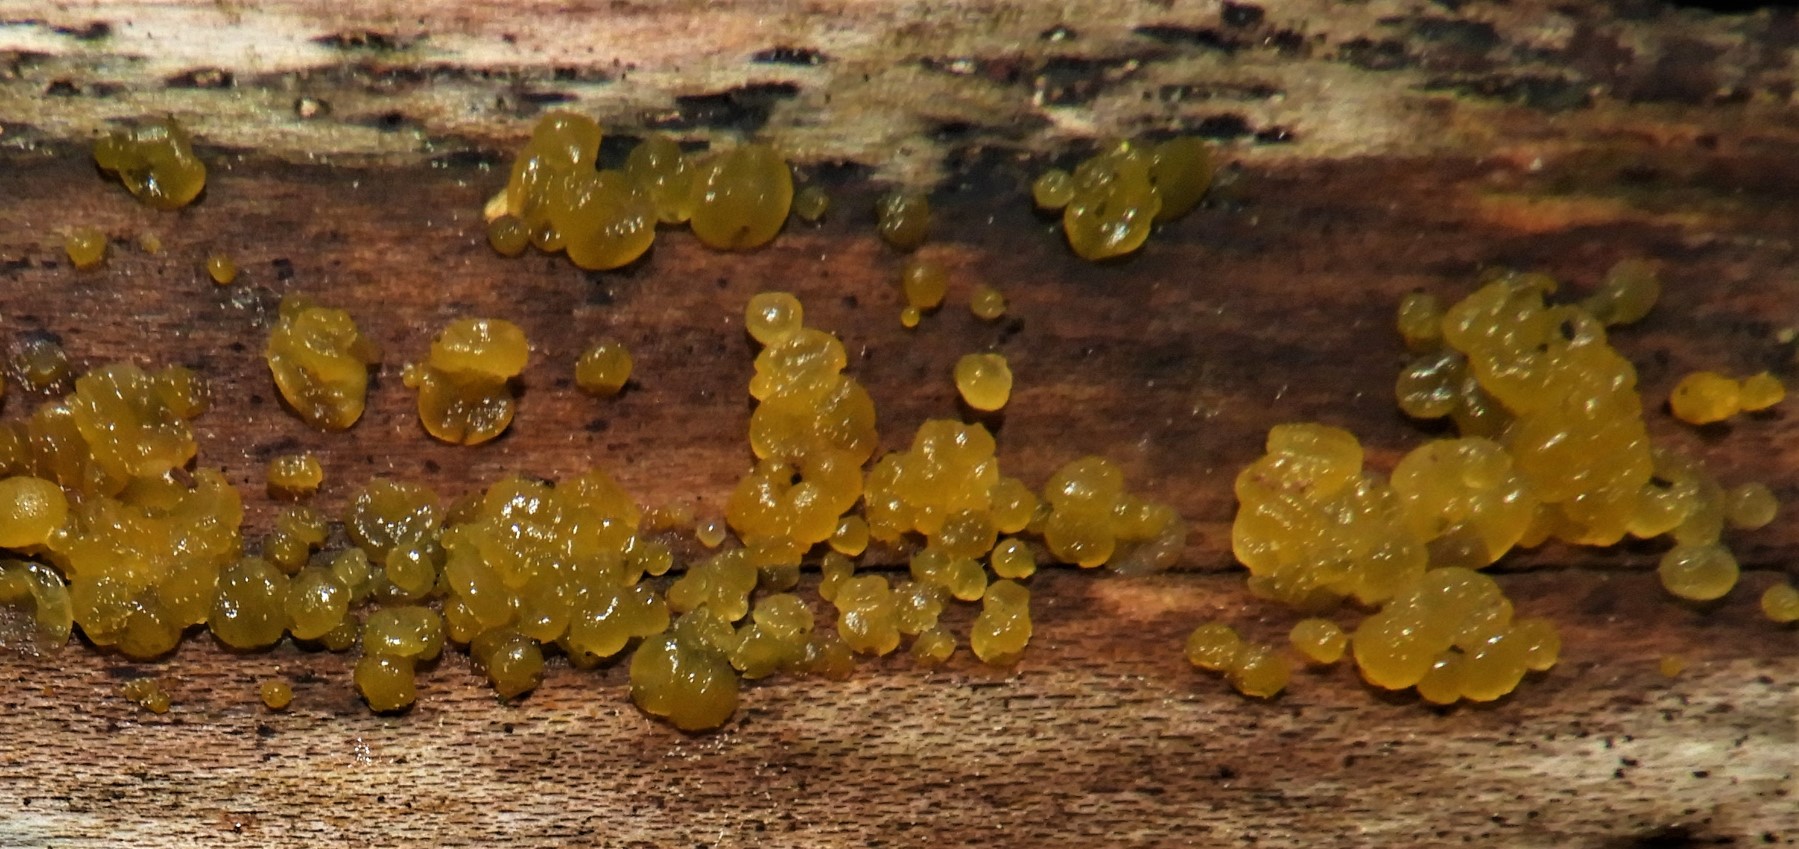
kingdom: Fungi
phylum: Basidiomycota
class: Dacrymycetes
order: Dacrymycetales
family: Dacrymycetaceae
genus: Dacrymyces
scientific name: Dacrymyces stillatus
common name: almindelig tåresvamp
